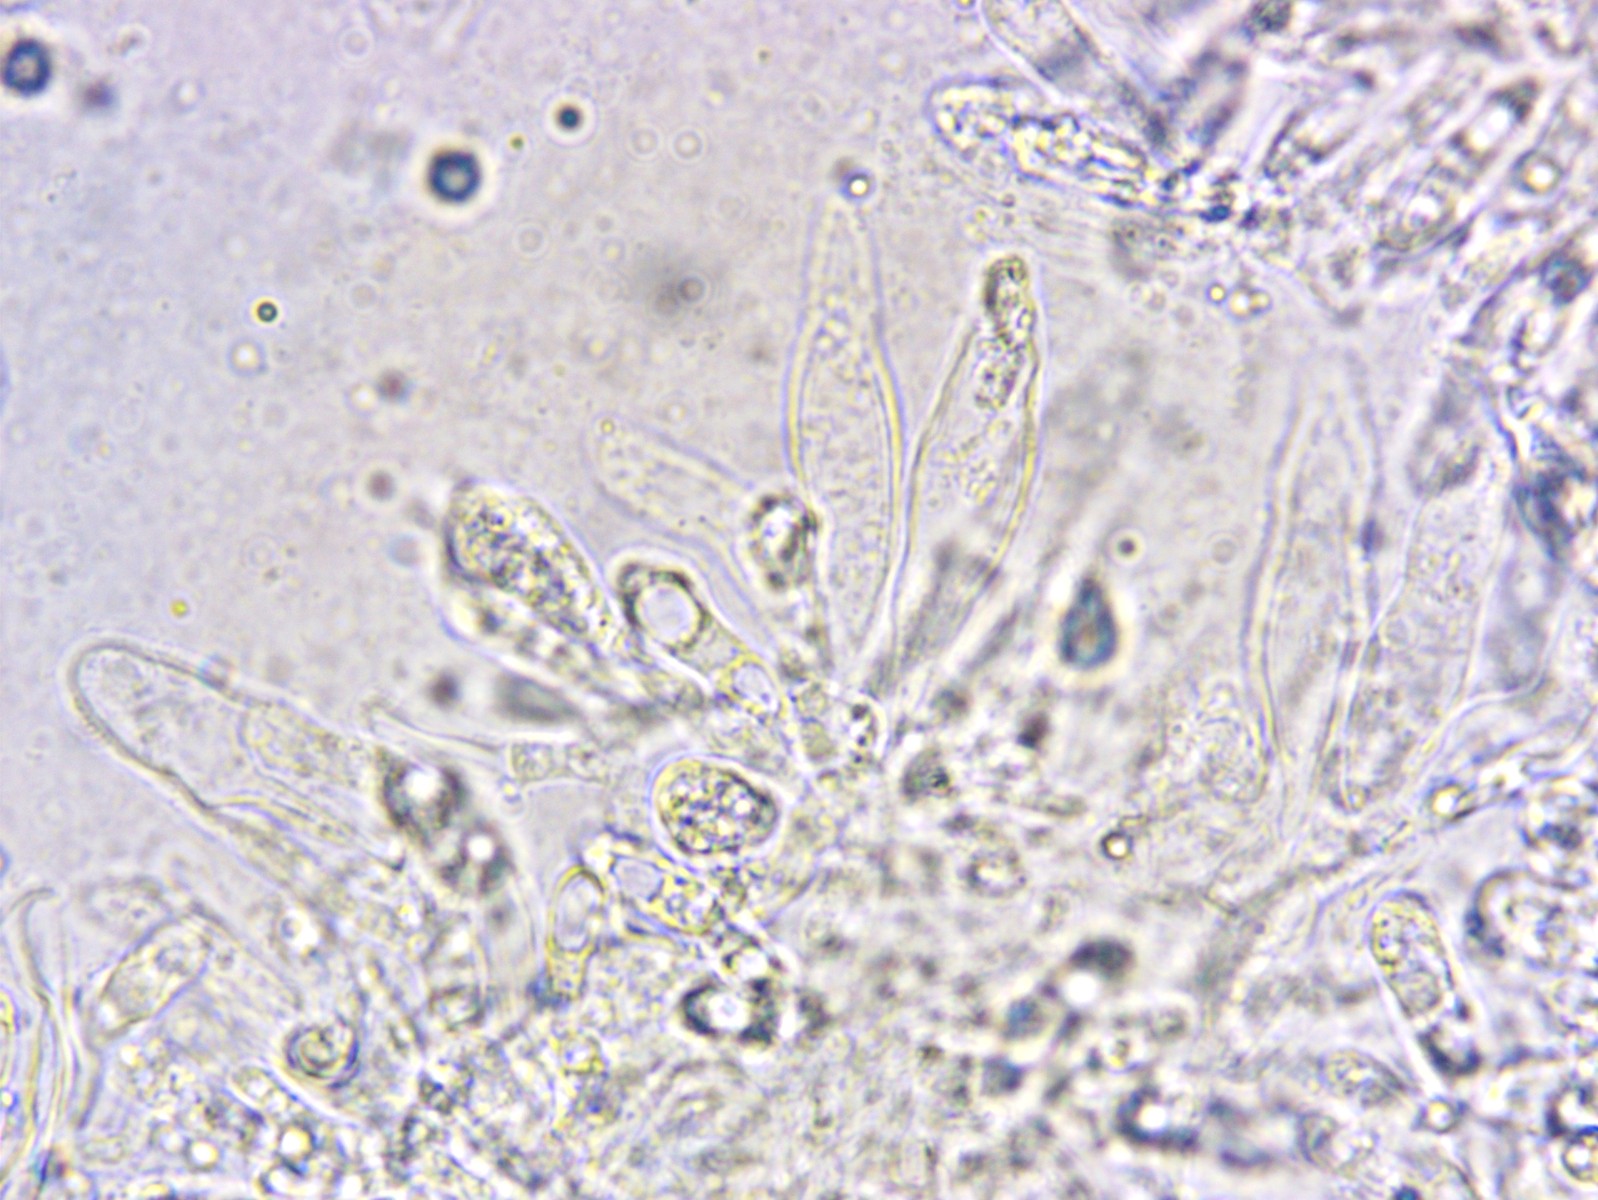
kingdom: Fungi
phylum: Basidiomycota
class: Agaricomycetes
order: Agaricales
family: Porotheleaceae
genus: Phloeomana
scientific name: Phloeomana hiemalis
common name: sen huesvamp
